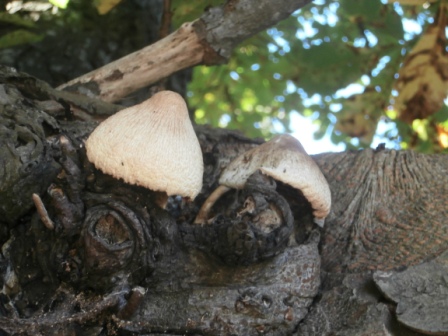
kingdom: Fungi
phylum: Basidiomycota
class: Agaricomycetes
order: Agaricales
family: Pluteaceae
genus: Volvariella
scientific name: Volvariella bombycina
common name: silkehåret posesvamp
